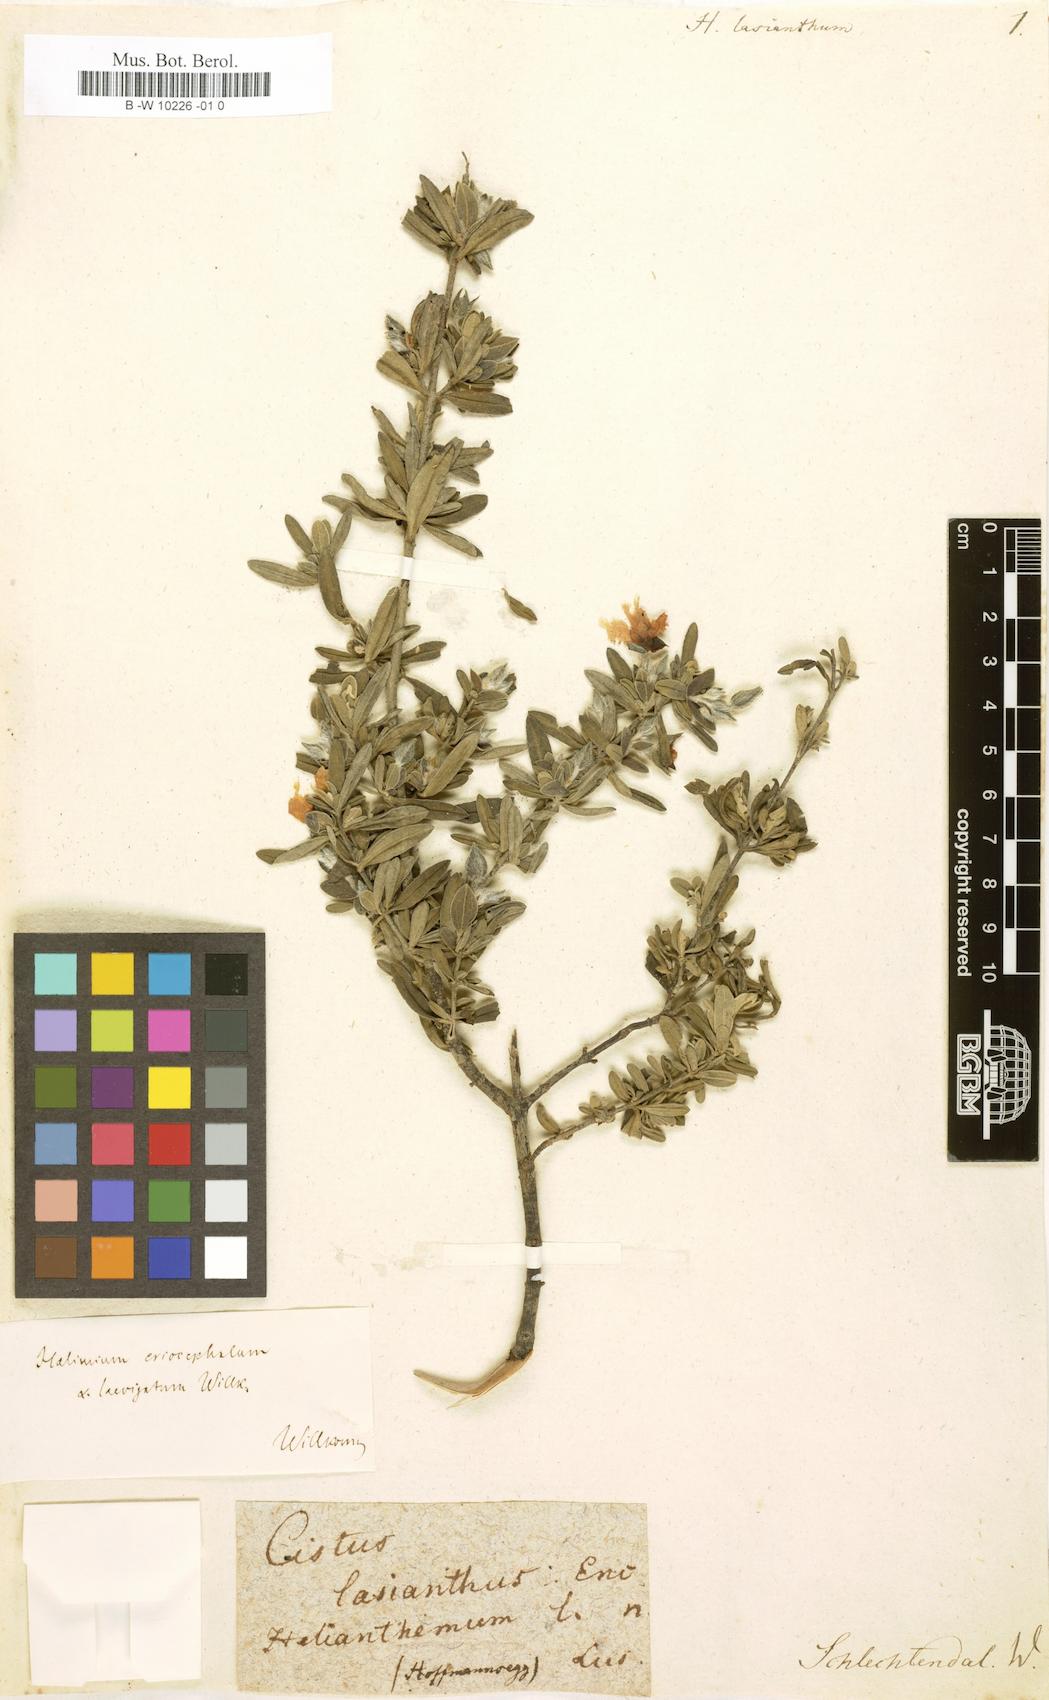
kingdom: Plantae
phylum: Tracheophyta
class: Magnoliopsida
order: Malvales
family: Cistaceae
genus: Helianthemum
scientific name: Helianthemum lasianthum
